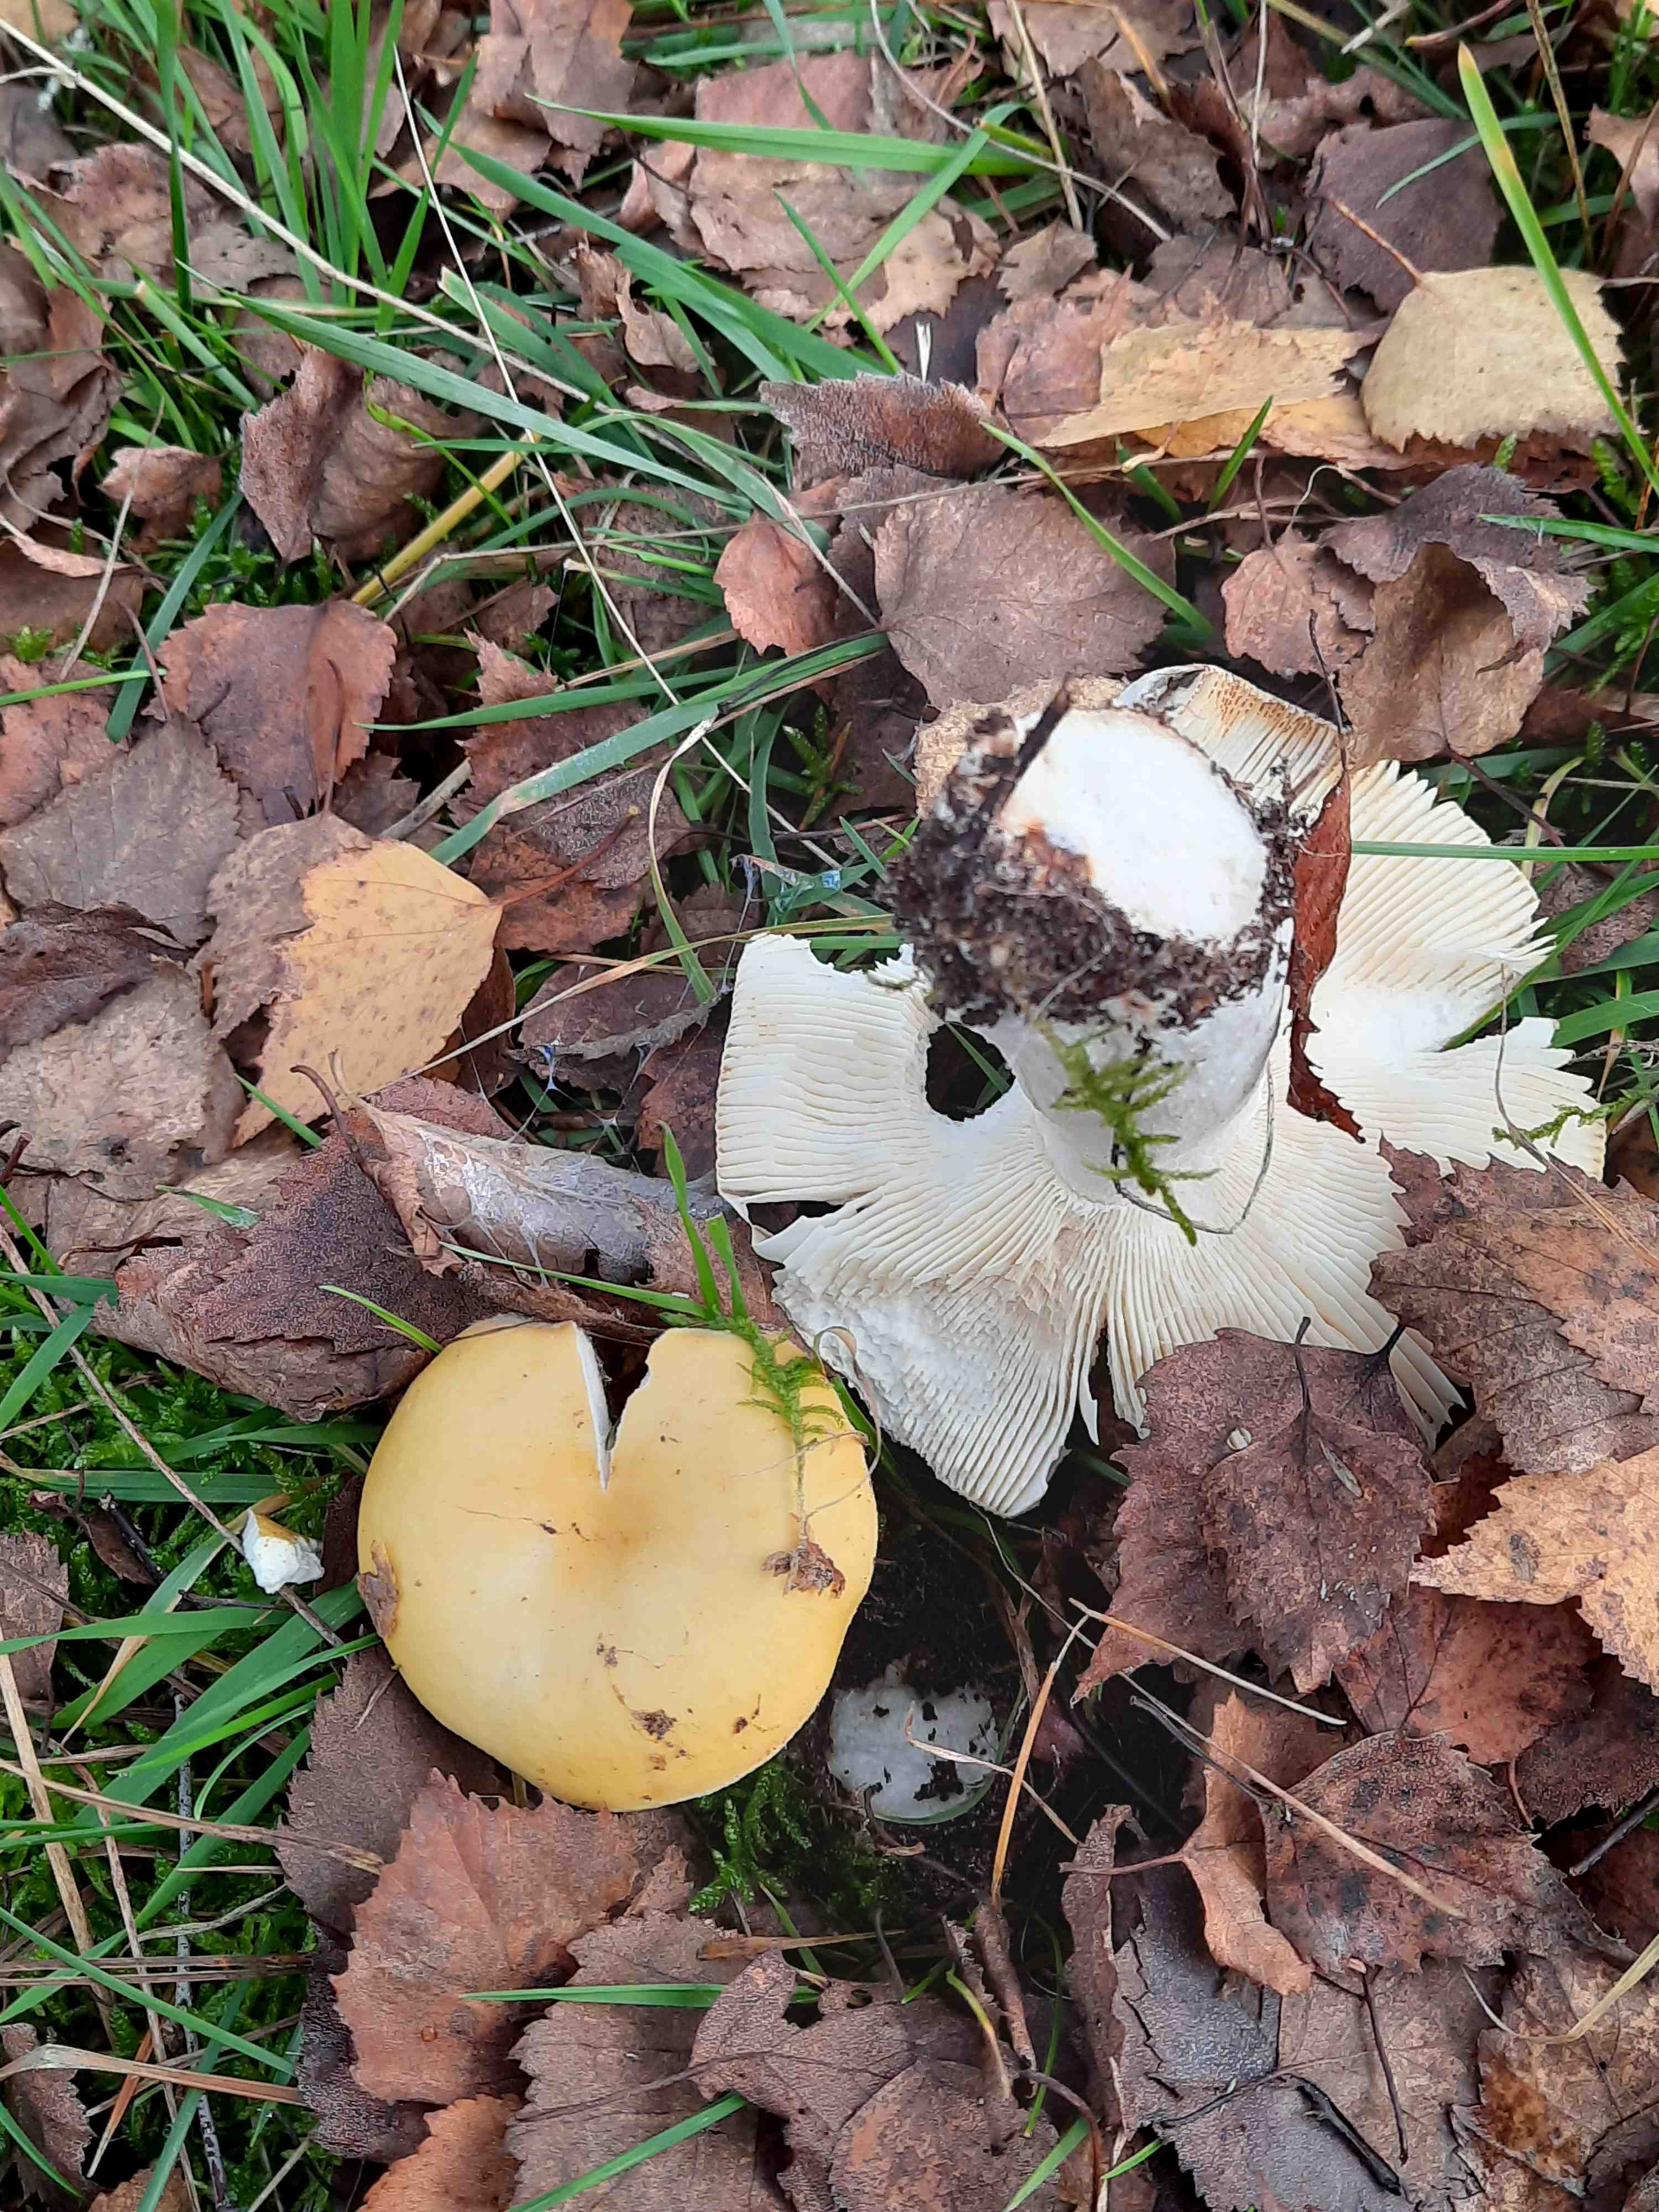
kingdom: Fungi
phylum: Basidiomycota
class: Agaricomycetes
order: Russulales
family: Russulaceae
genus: Russula
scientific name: Russula claroflava
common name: birke-skørhat
